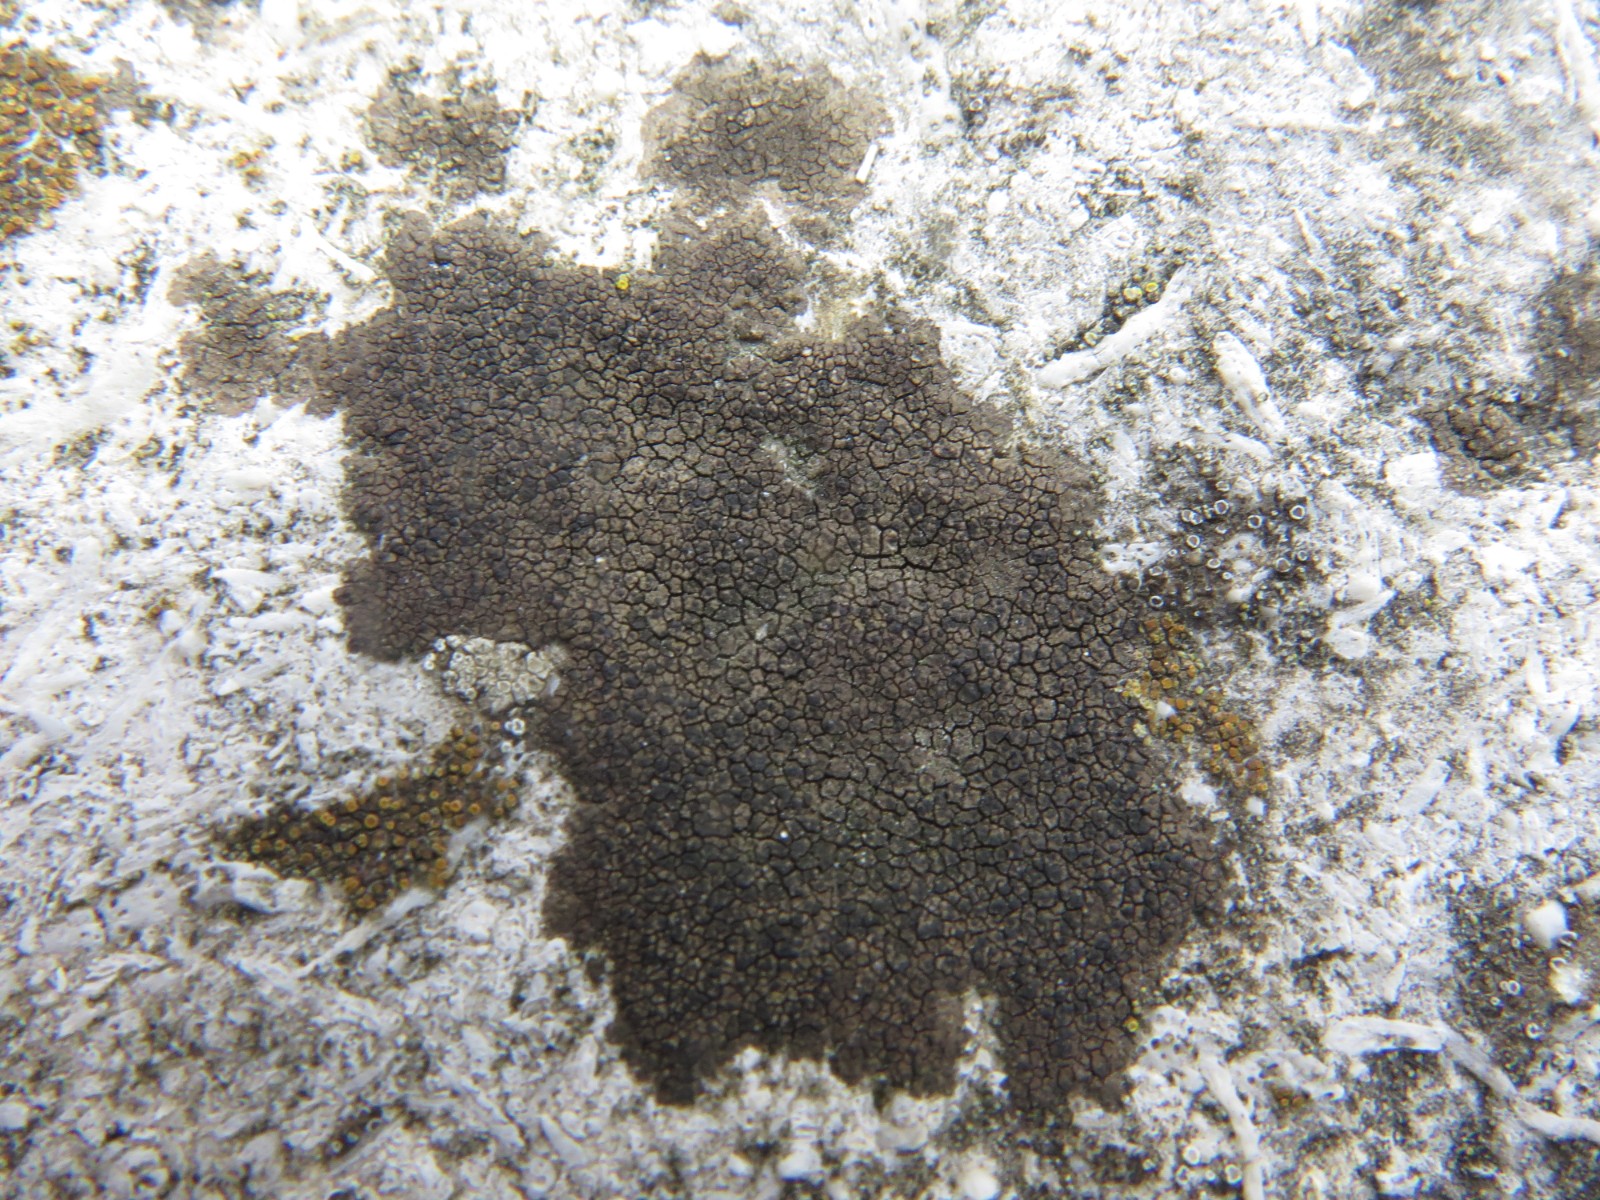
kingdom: Fungi
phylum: Ascomycota
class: Eurotiomycetes
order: Verrucariales
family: Verrucariaceae
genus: Verrucaria
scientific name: Verrucaria nigrescens
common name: sortbrun vortelav
